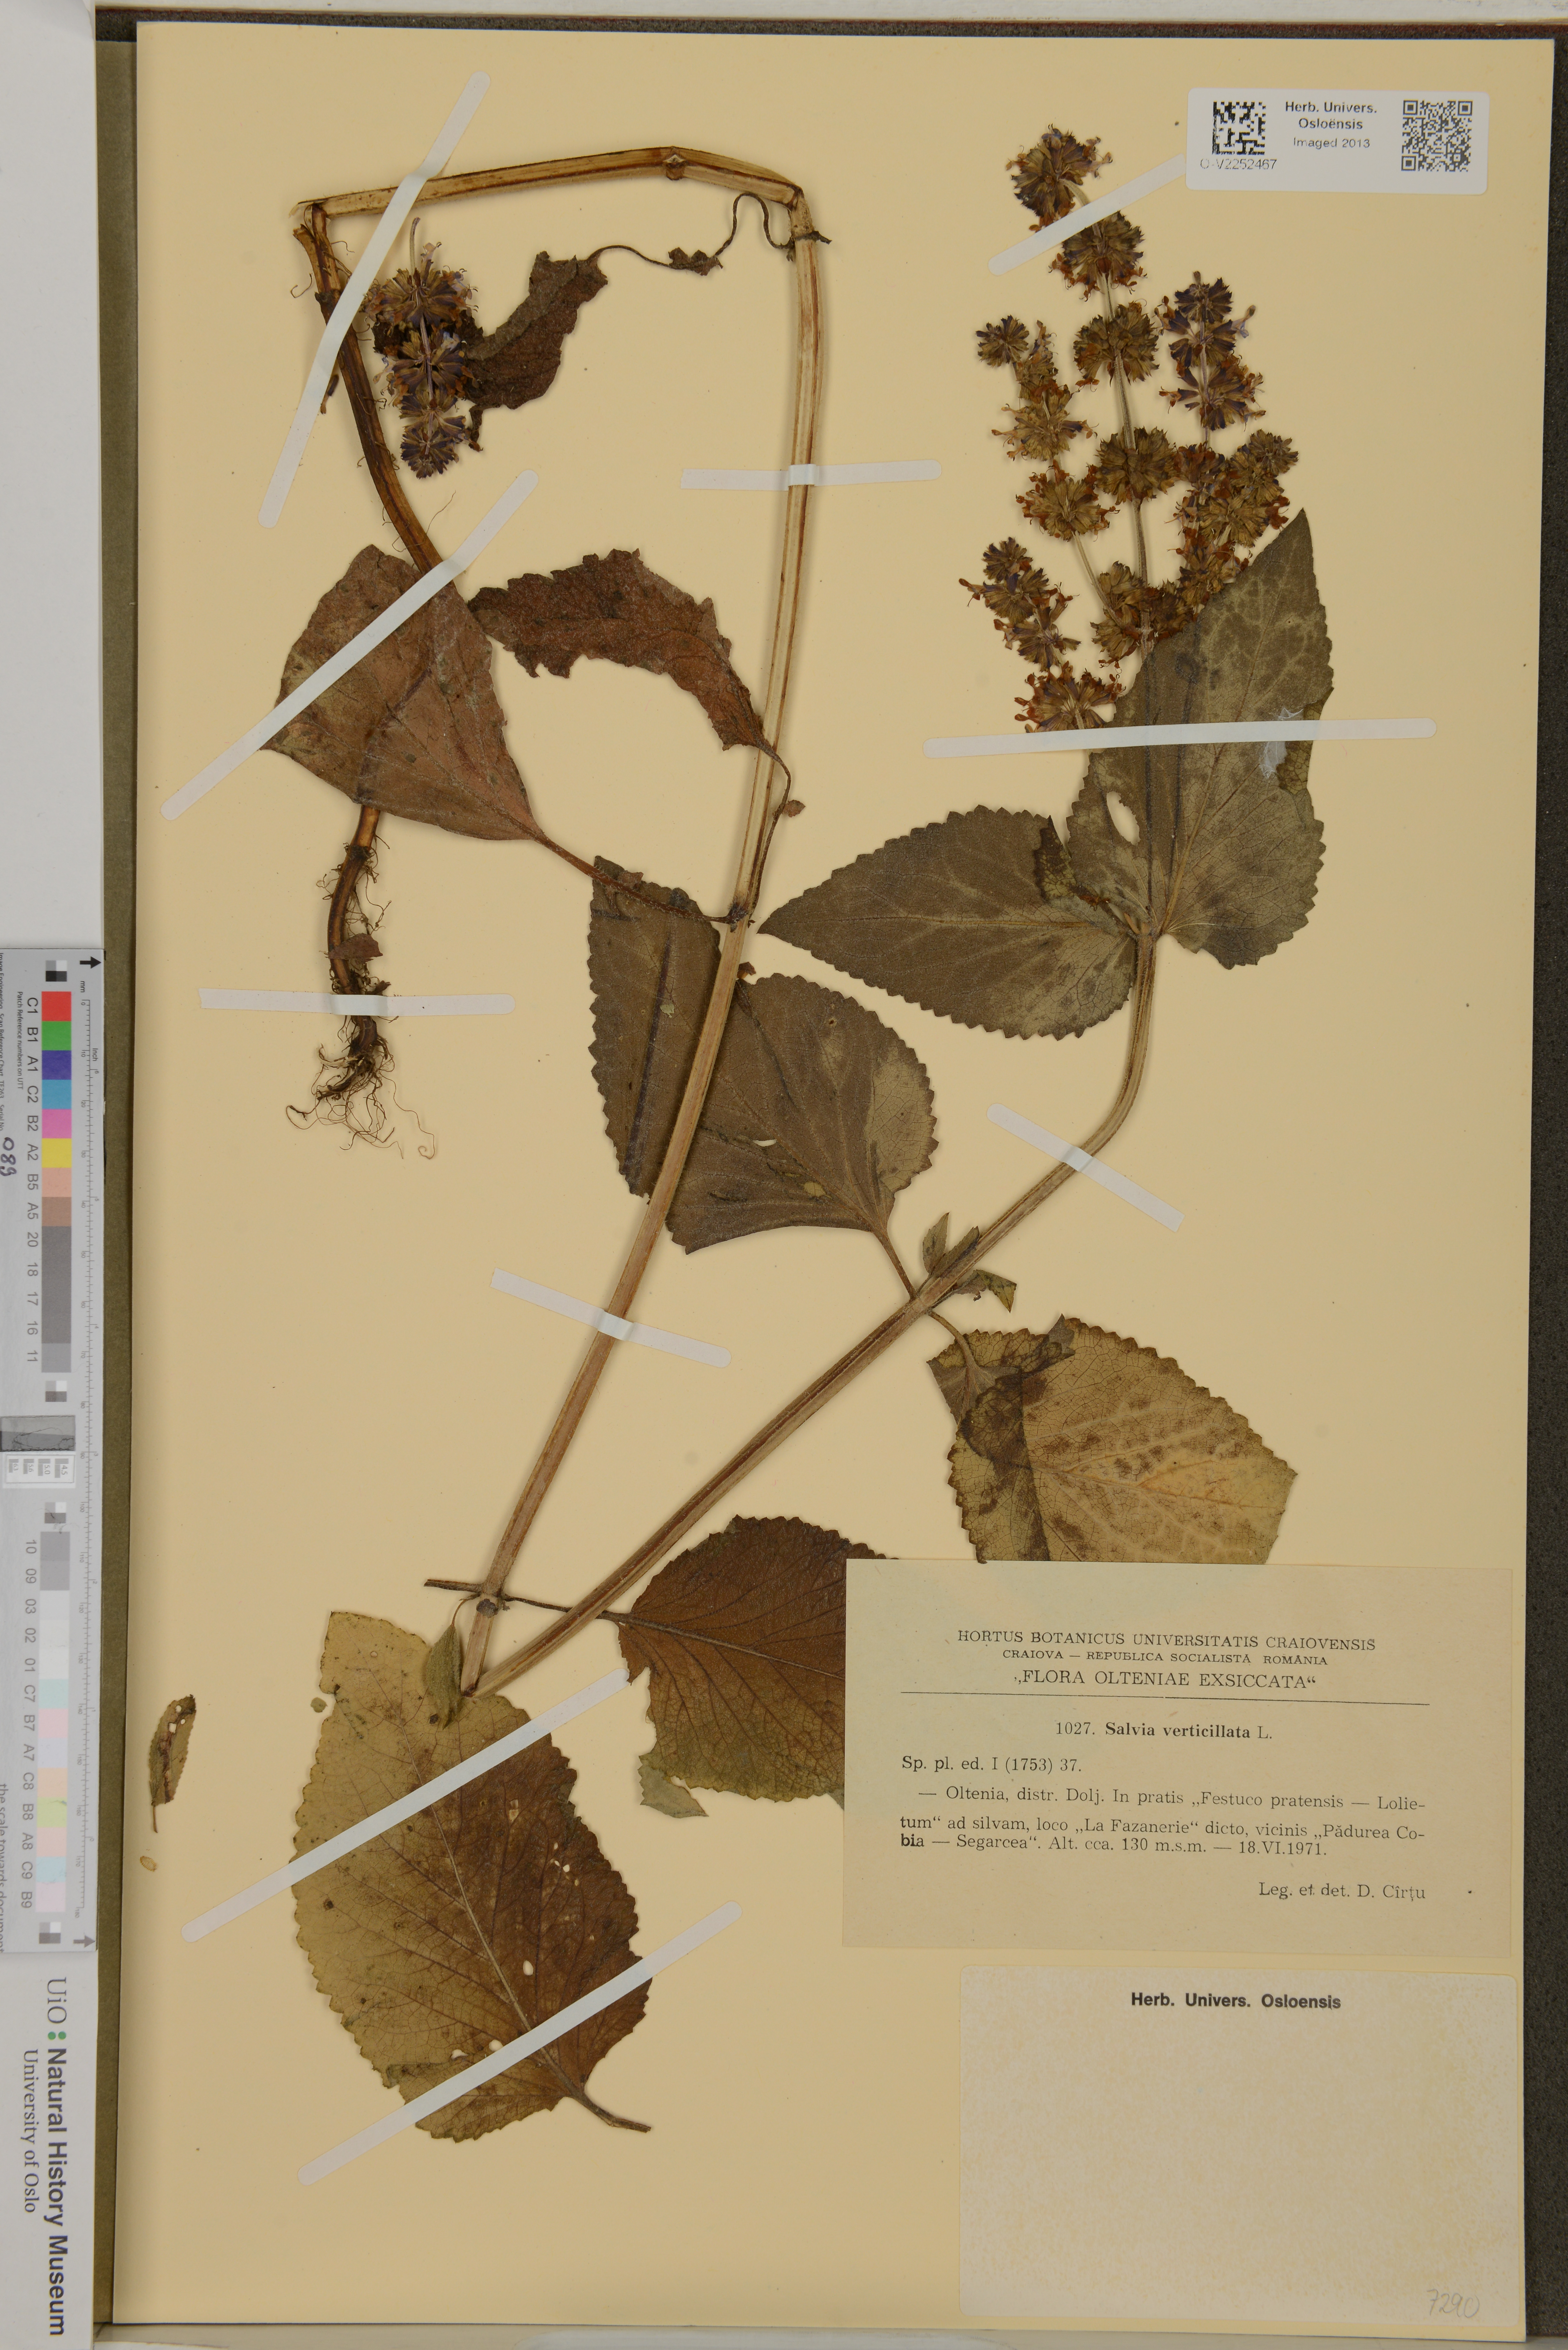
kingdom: Plantae
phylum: Tracheophyta
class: Magnoliopsida
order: Lamiales
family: Lamiaceae
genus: Salvia
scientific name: Salvia verticillata
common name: Whorled clary
